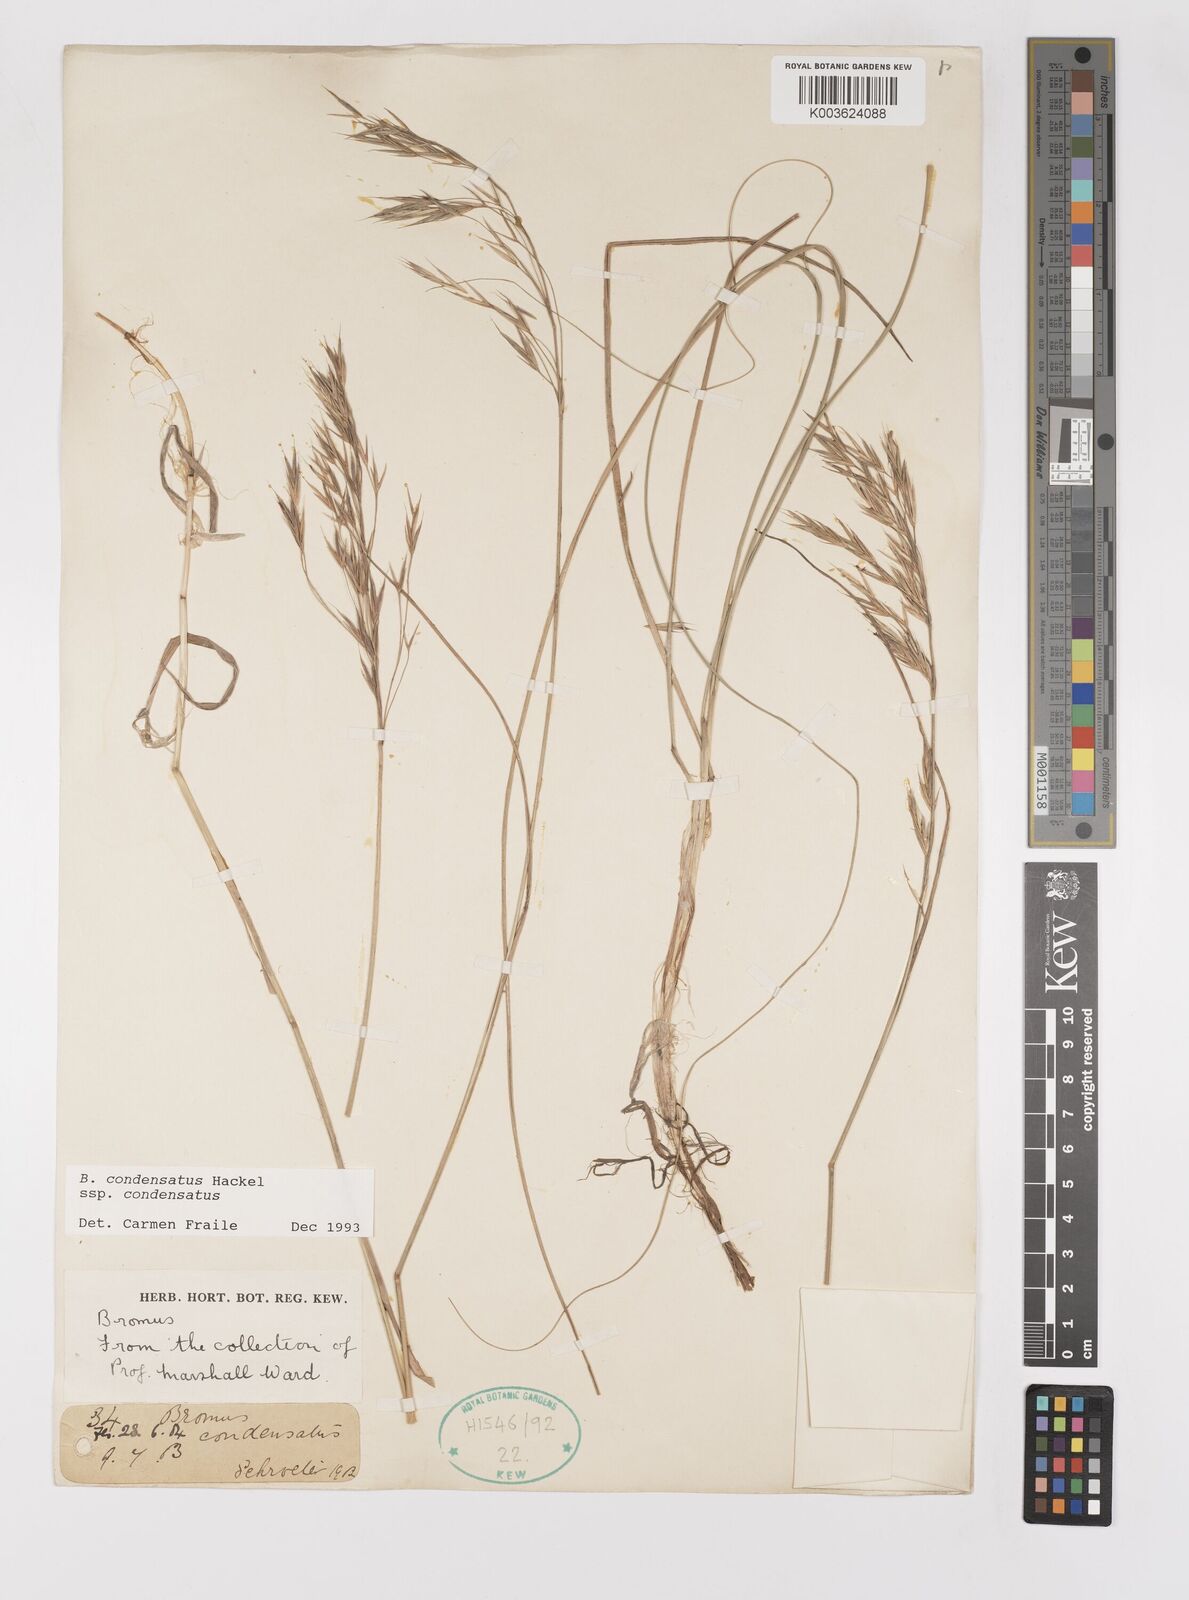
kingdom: Plantae
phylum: Tracheophyta
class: Liliopsida
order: Poales
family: Poaceae
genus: Bromus
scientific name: Bromus erectus
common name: Erect brome
